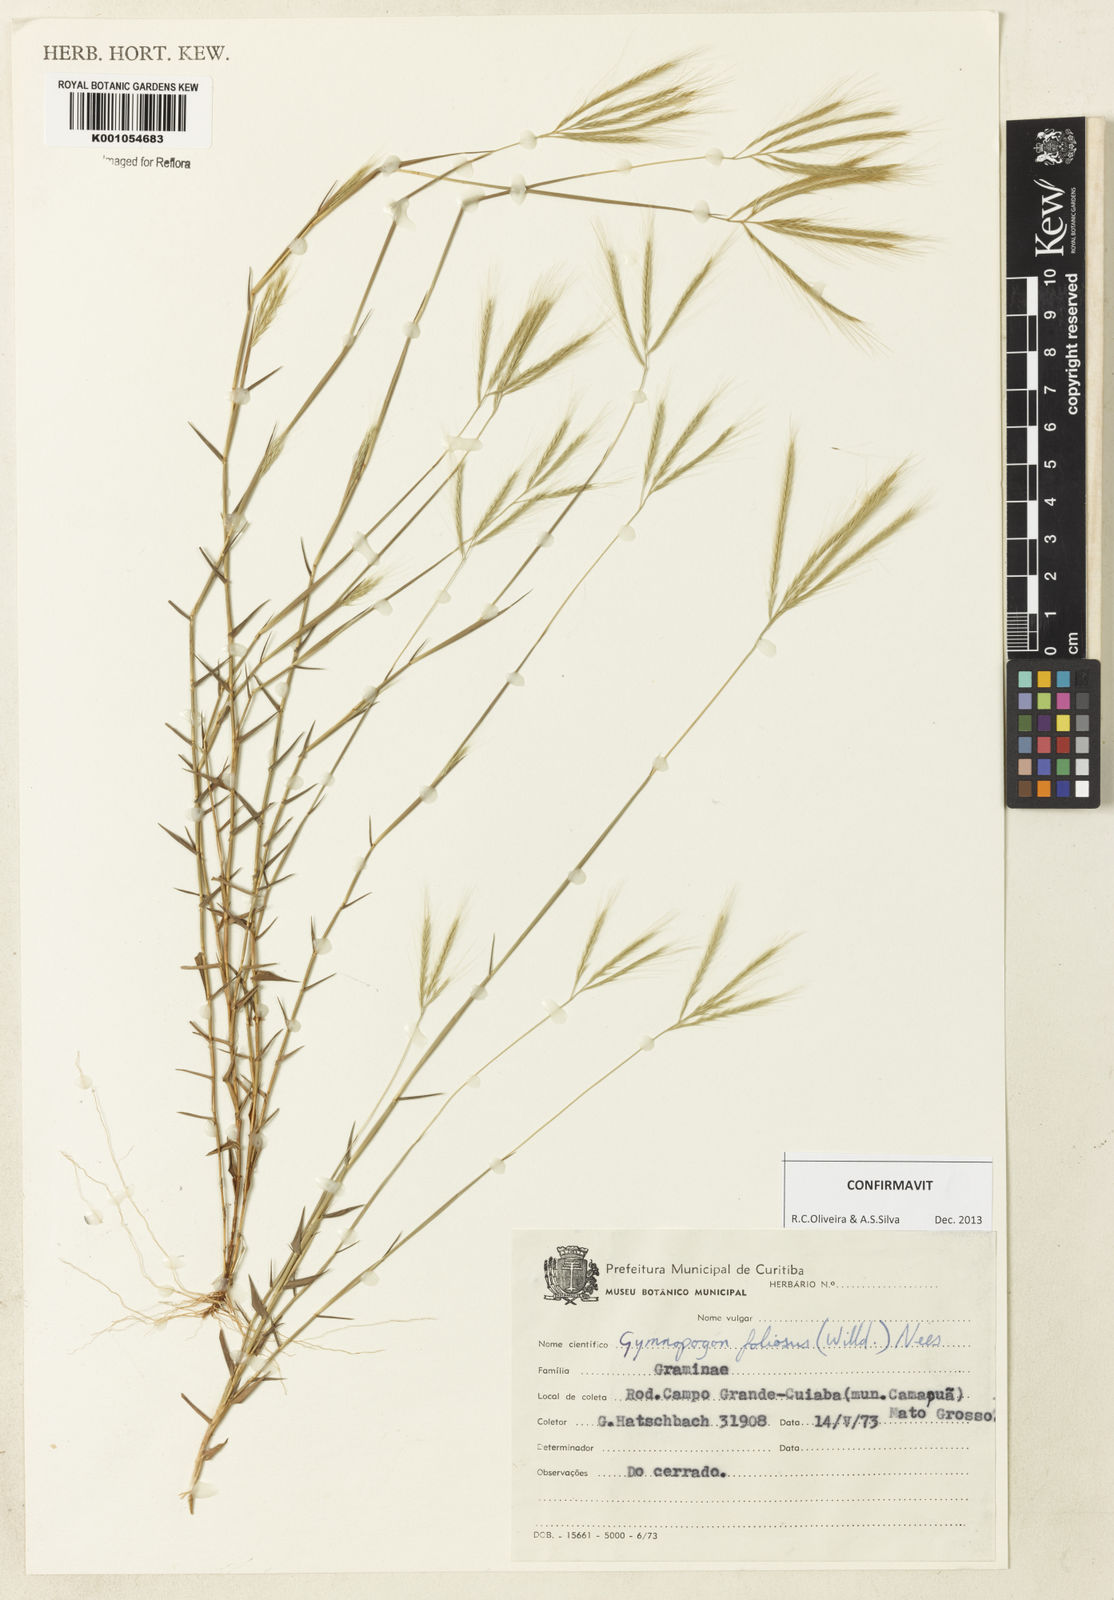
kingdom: Plantae
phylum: Tracheophyta
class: Liliopsida
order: Poales
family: Poaceae
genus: Gymnopogon
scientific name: Gymnopogon foliosus
